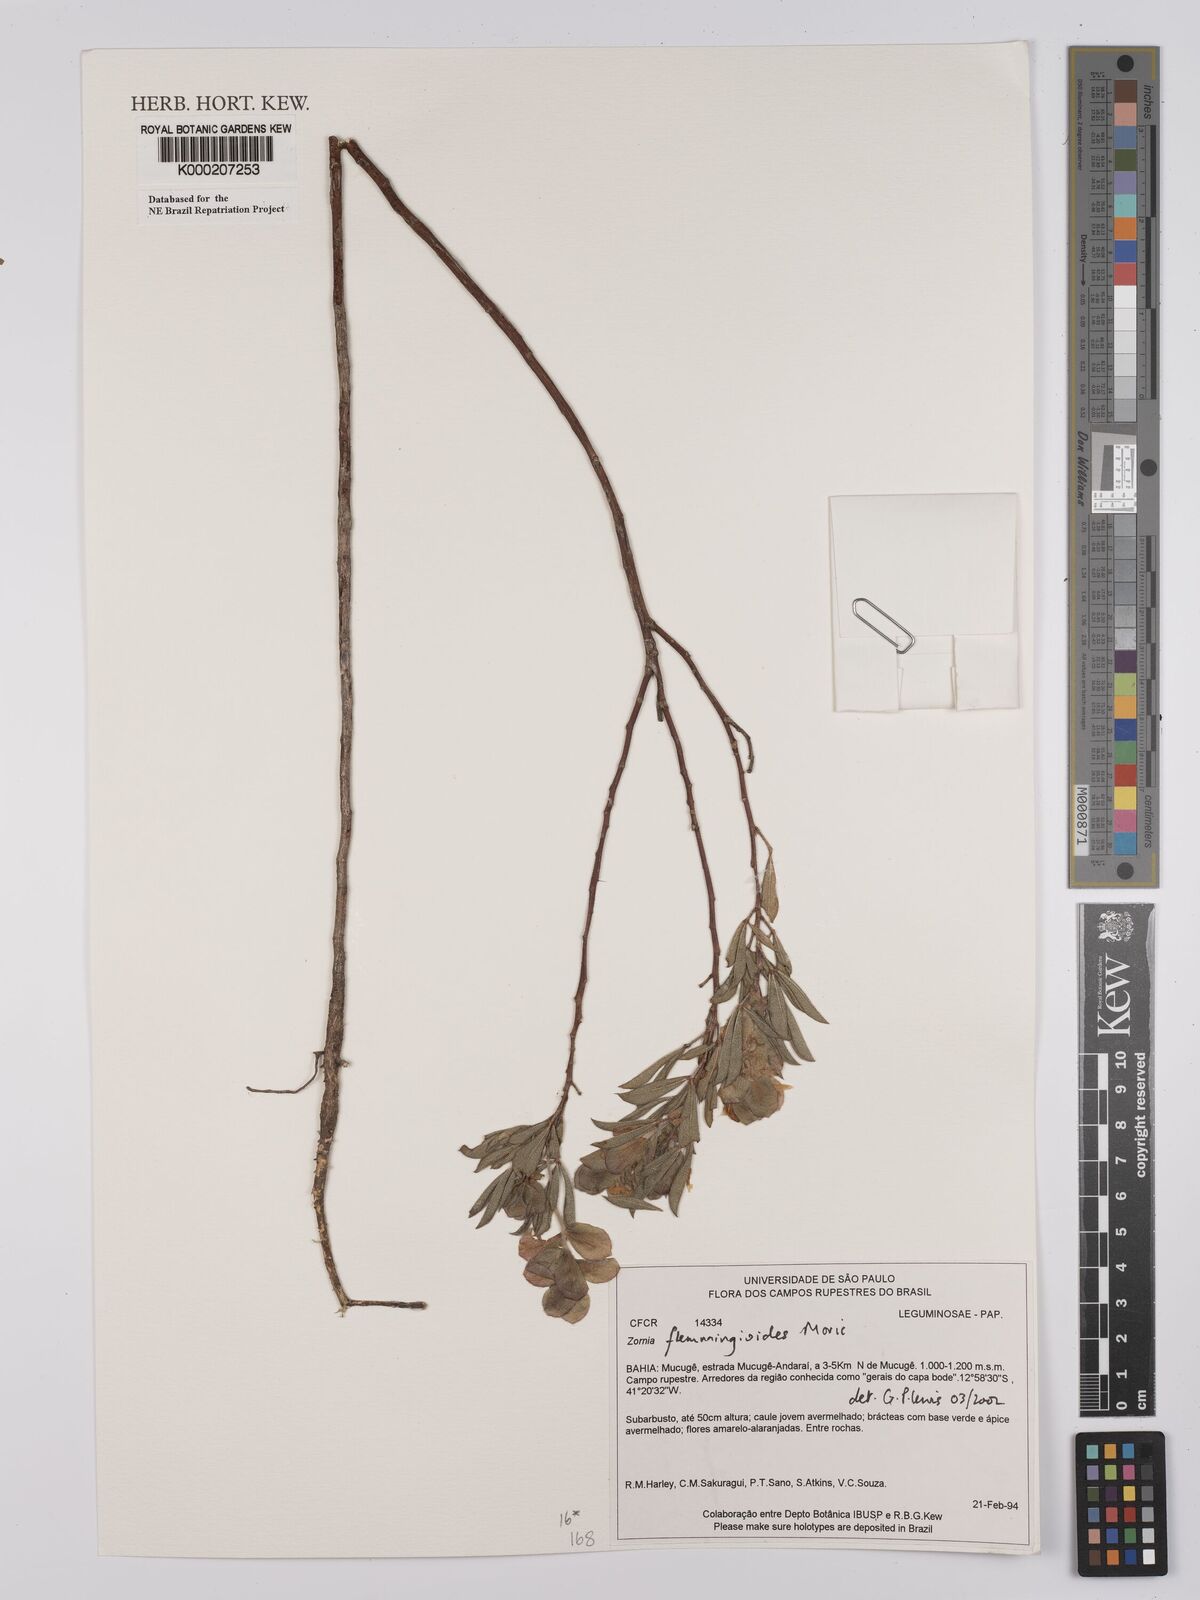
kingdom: Plantae
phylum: Tracheophyta
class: Magnoliopsida
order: Fabales
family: Fabaceae
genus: Zornia
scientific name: Zornia flemmingioides
